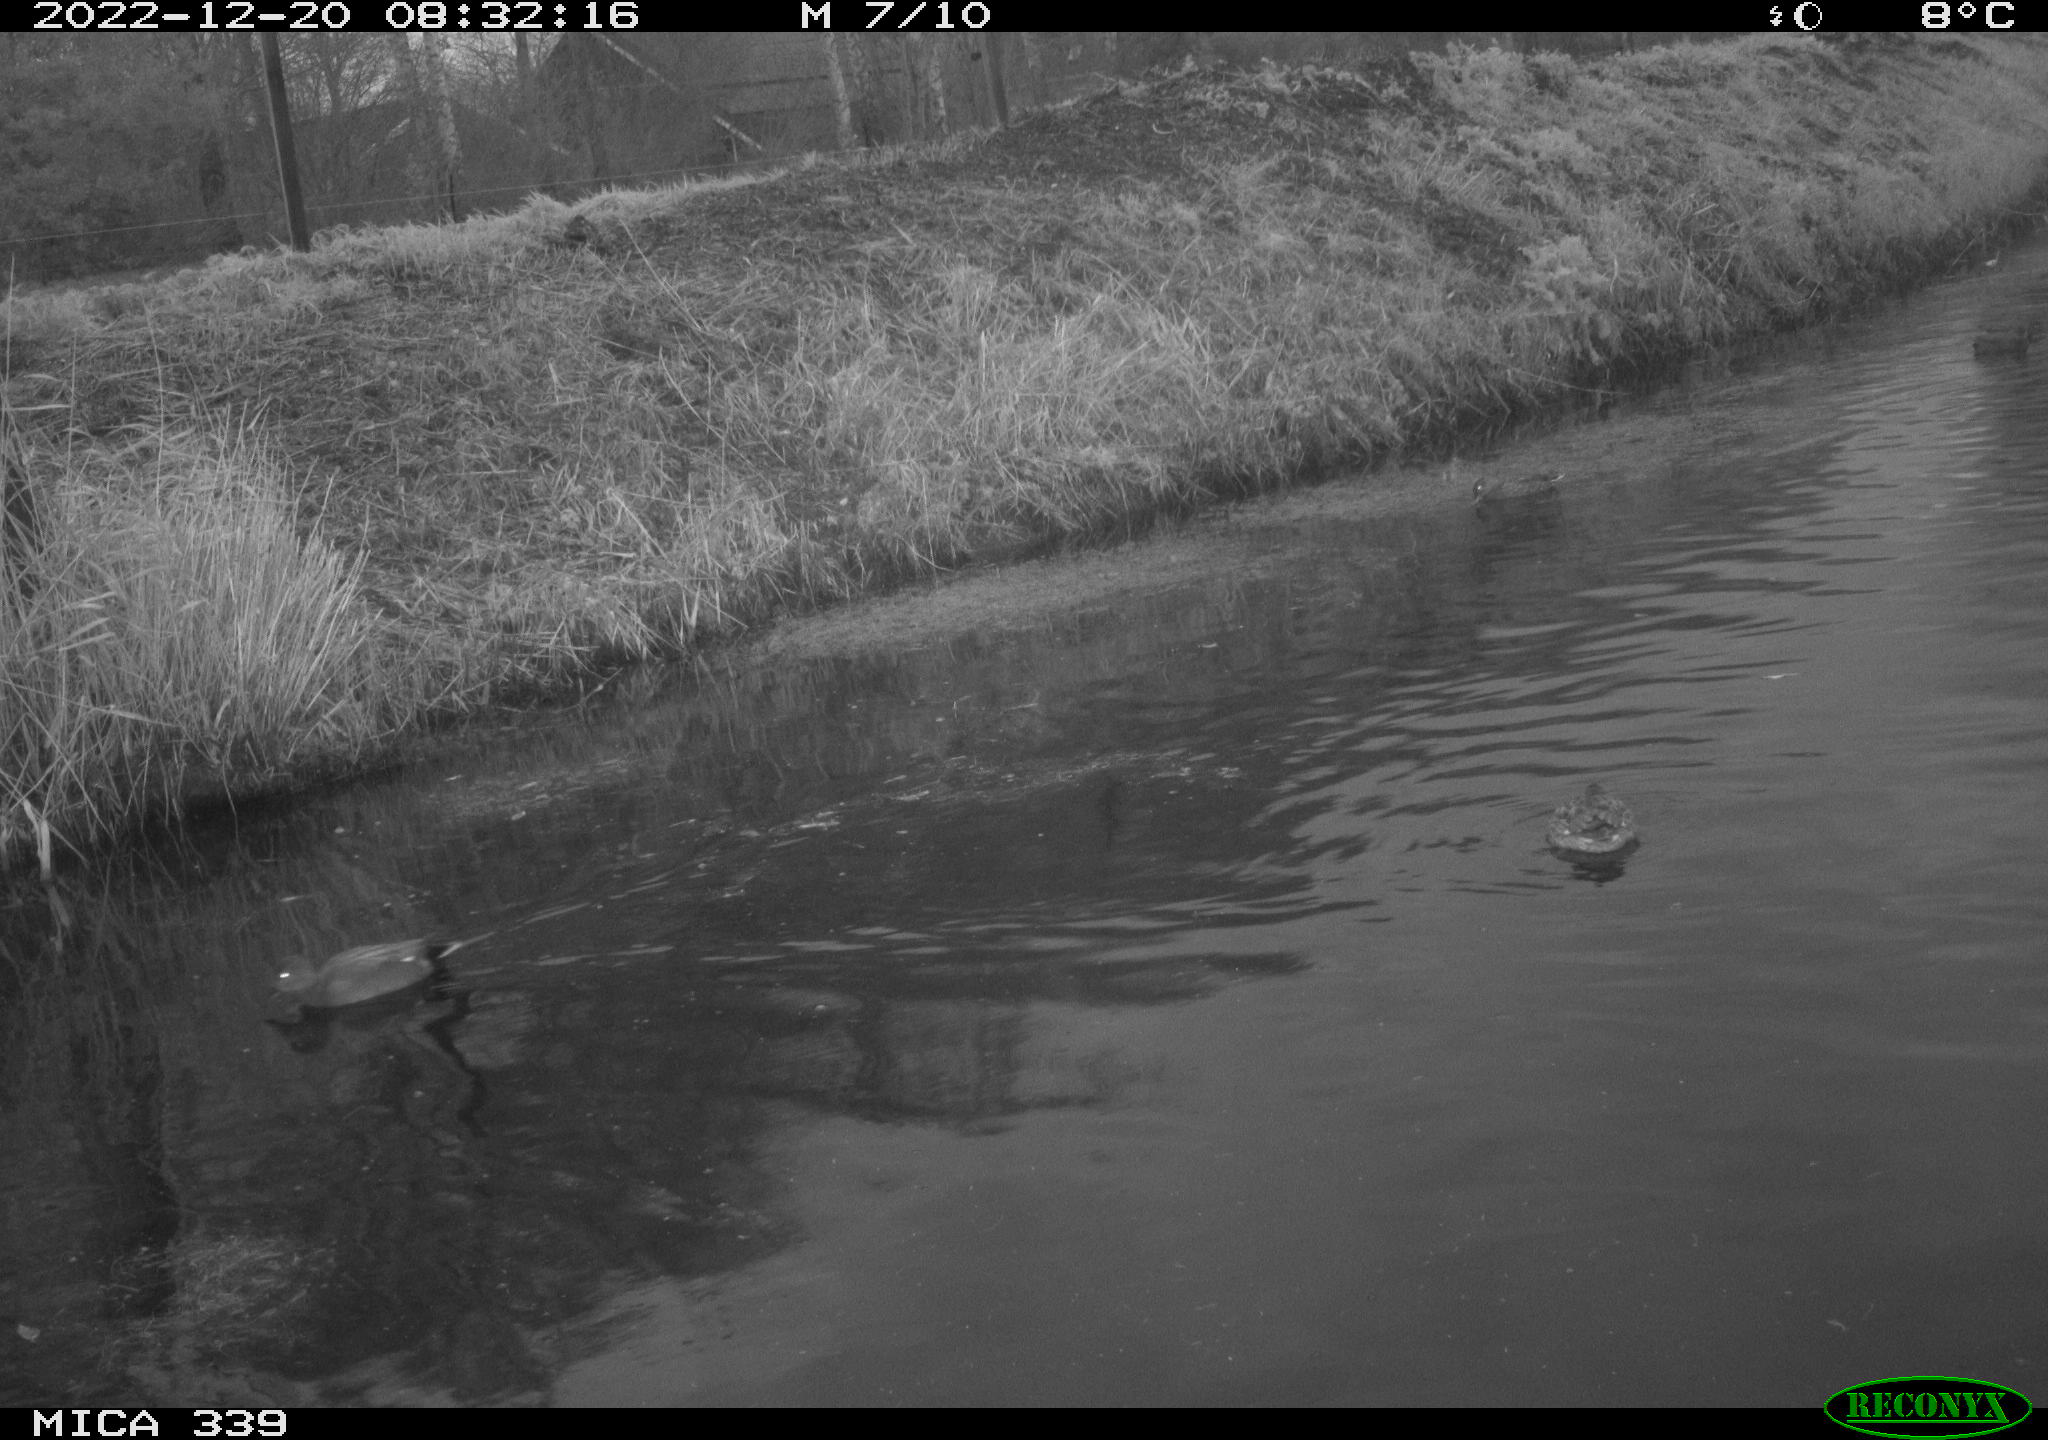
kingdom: Animalia
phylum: Chordata
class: Aves
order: Anseriformes
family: Anatidae
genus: Anas
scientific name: Anas
